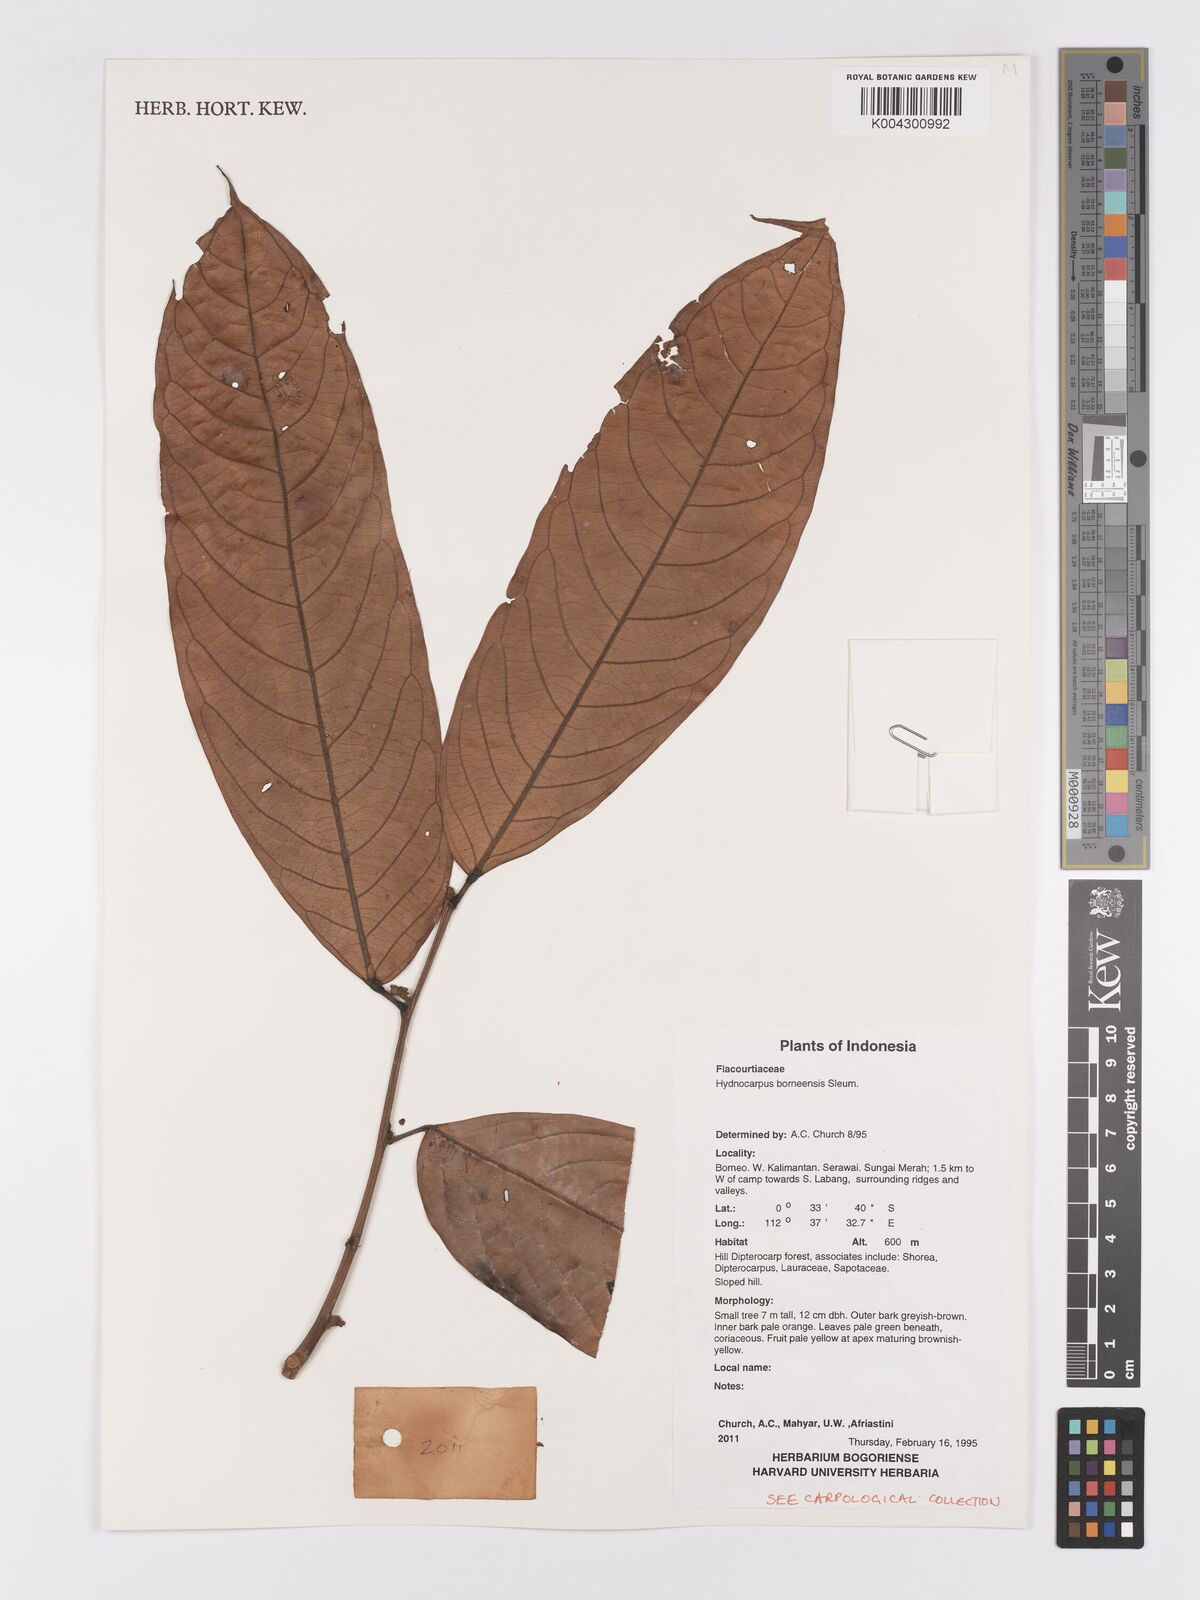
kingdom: Plantae
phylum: Tracheophyta
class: Magnoliopsida
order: Malpighiales
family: Achariaceae
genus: Hydnocarpus
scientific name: Hydnocarpus borneensis
